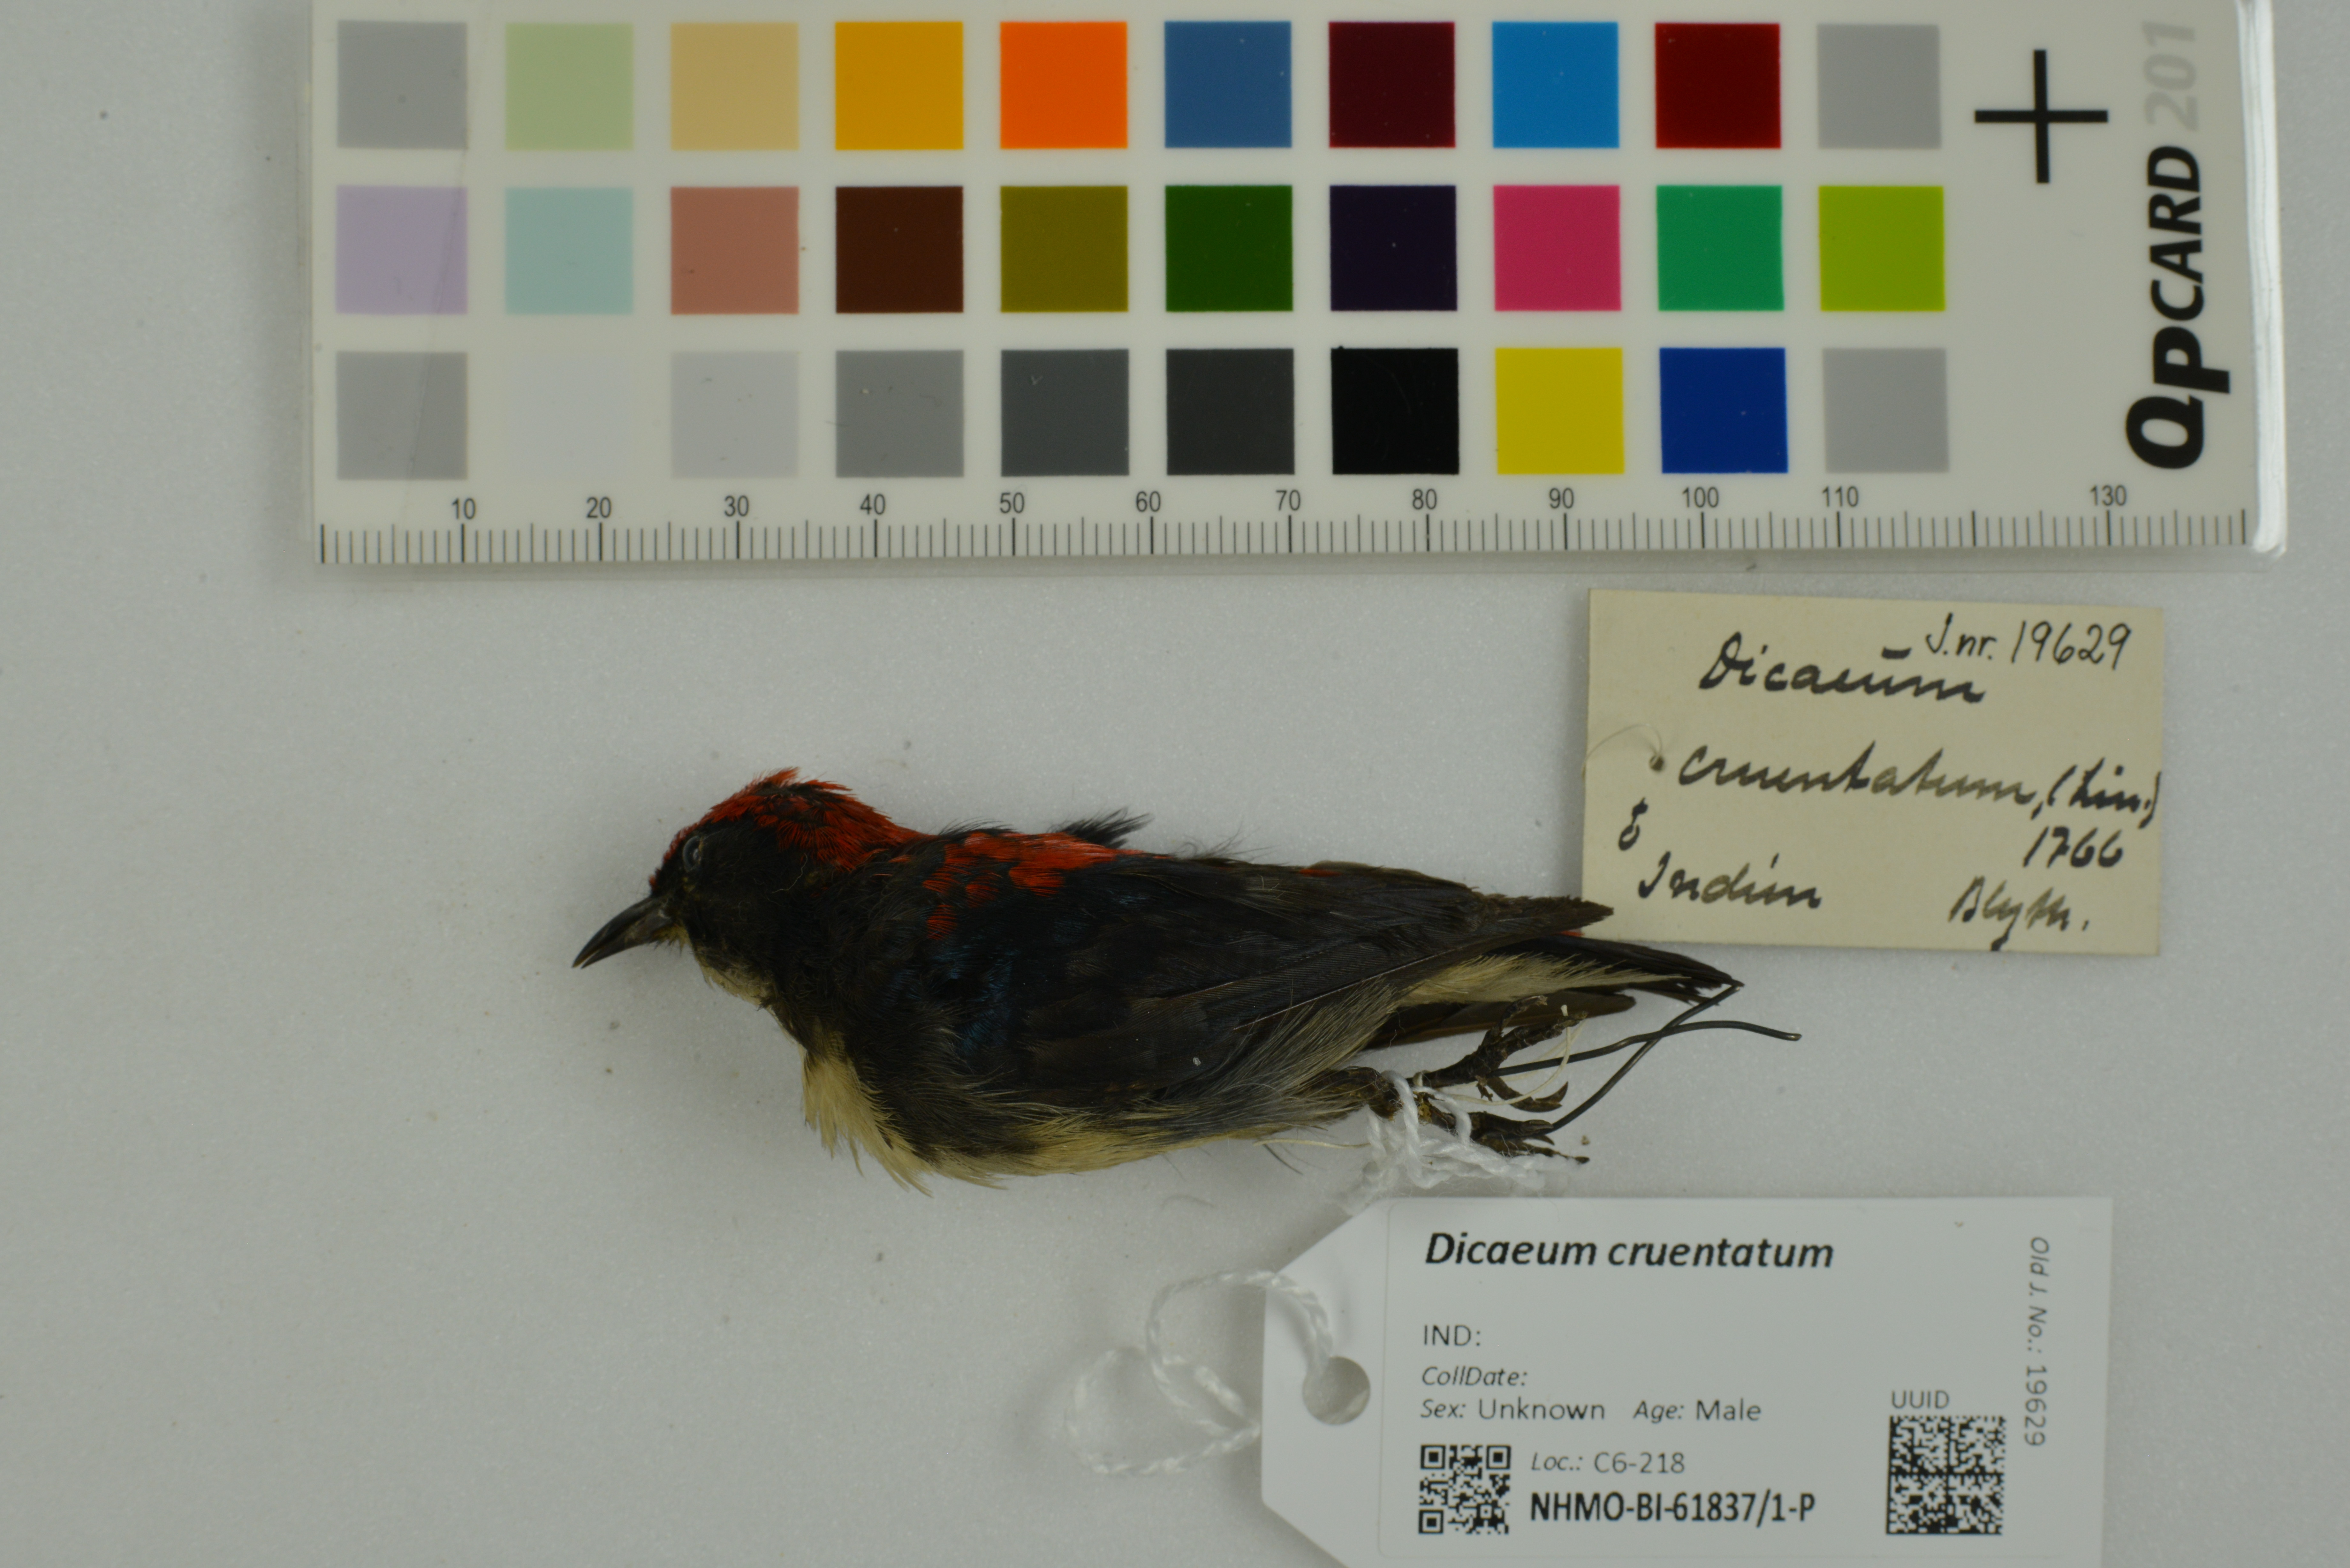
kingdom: Animalia
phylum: Chordata
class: Aves
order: Passeriformes
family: Dicaeidae
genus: Dicaeum
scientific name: Dicaeum cruentatum
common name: Scarlet-backed flowerpecker
